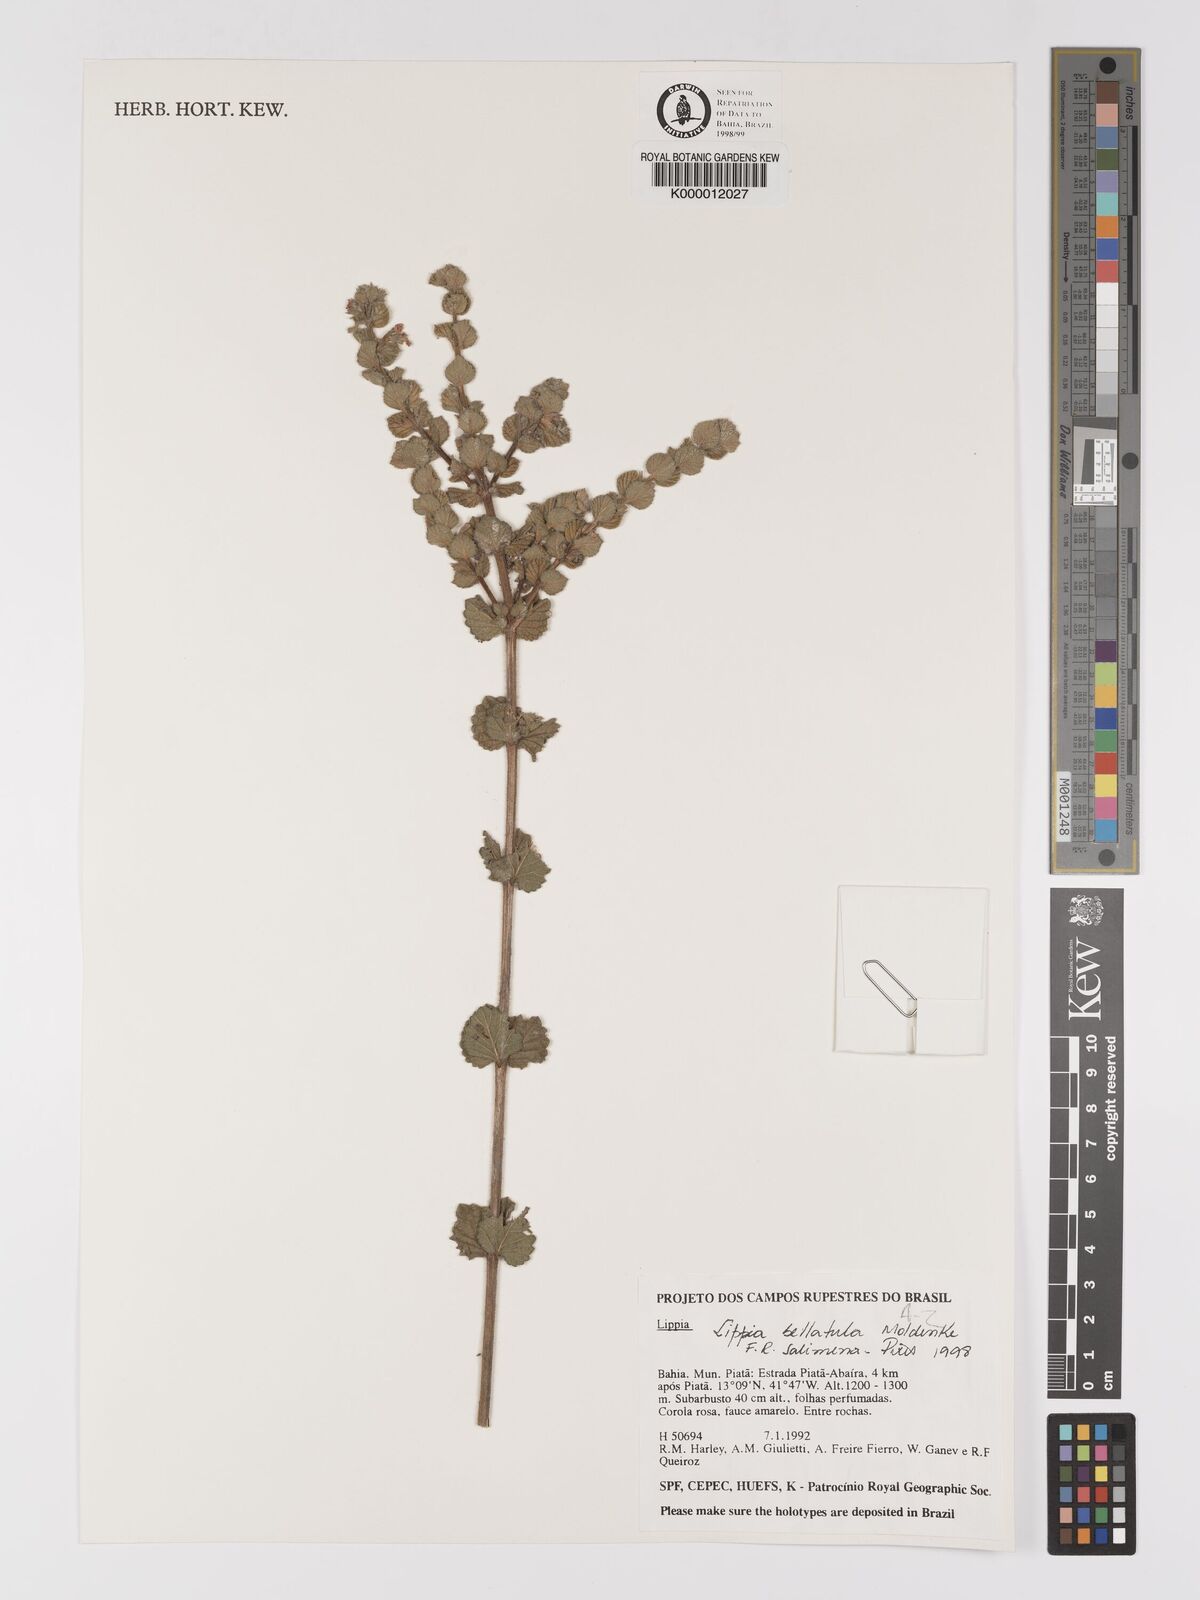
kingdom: Plantae
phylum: Tracheophyta
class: Magnoliopsida
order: Lamiales
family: Verbenaceae
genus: Lippia
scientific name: Lippia bellatula
